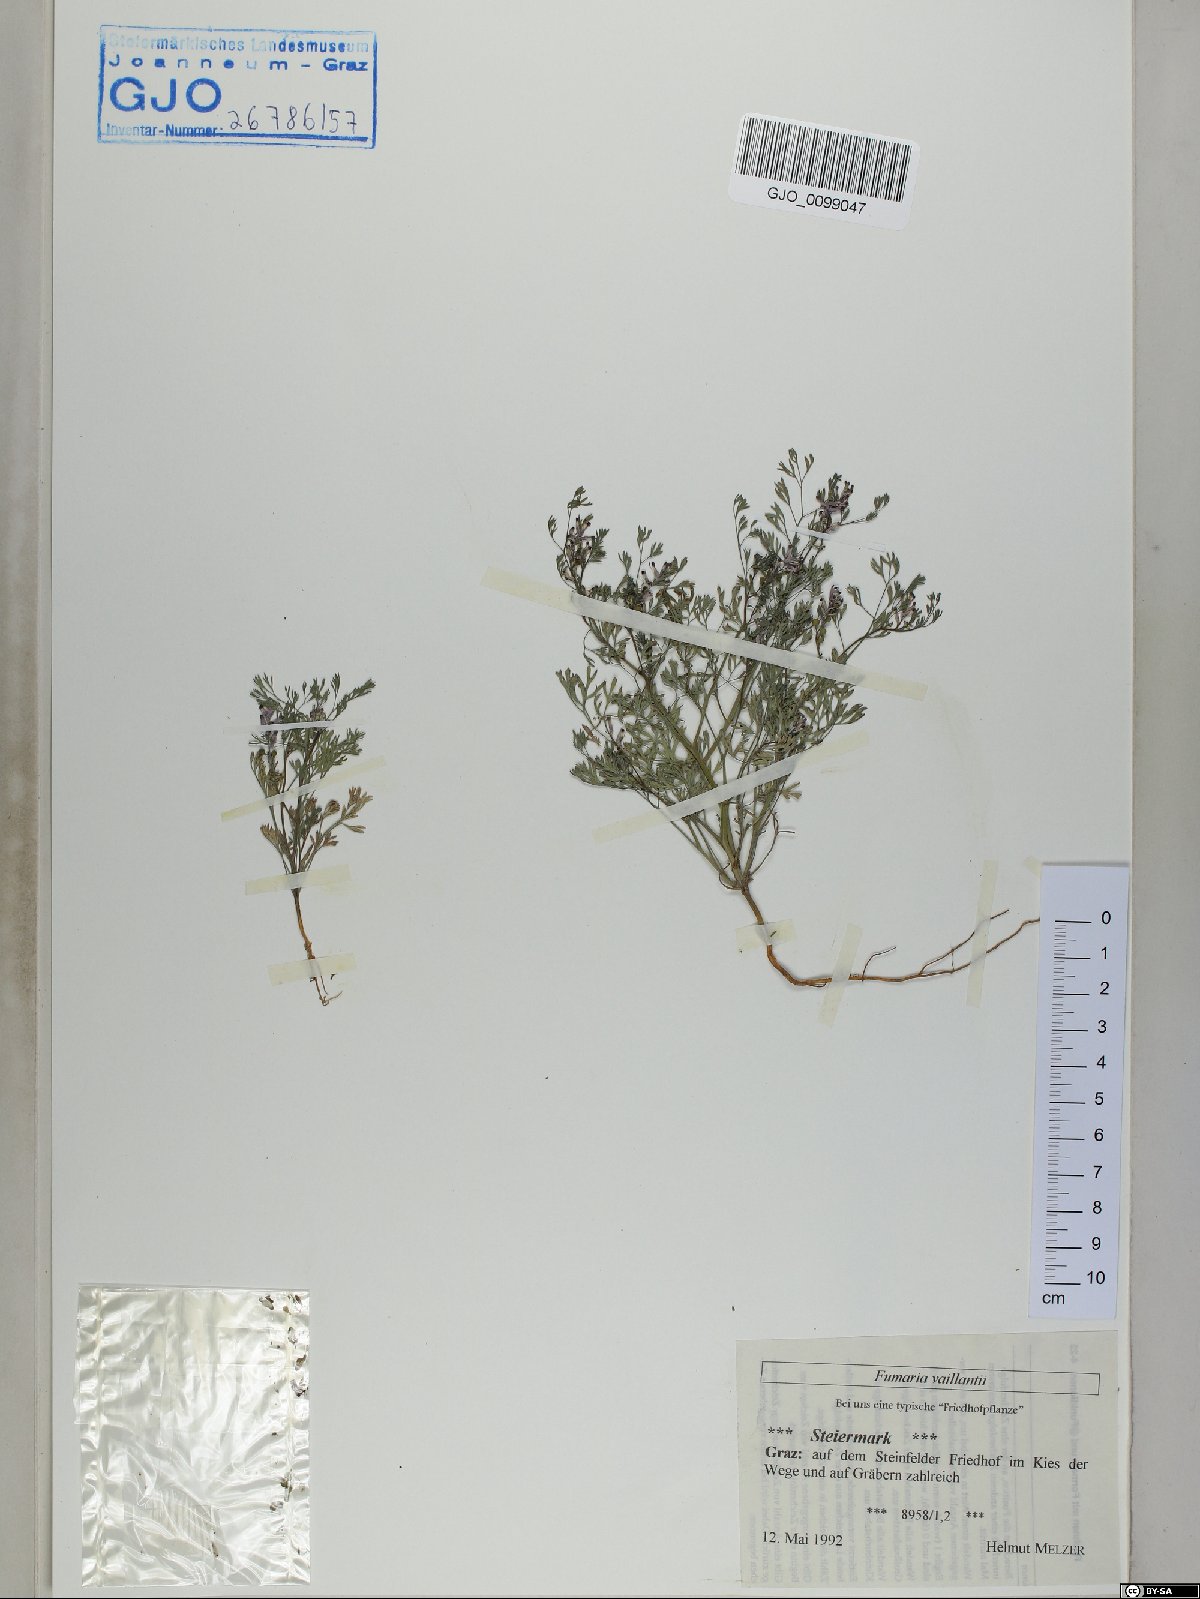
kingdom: Plantae
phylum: Tracheophyta
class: Magnoliopsida
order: Ranunculales
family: Papaveraceae
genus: Fumaria
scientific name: Fumaria vaillantii
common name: Few-flowered fumitory
